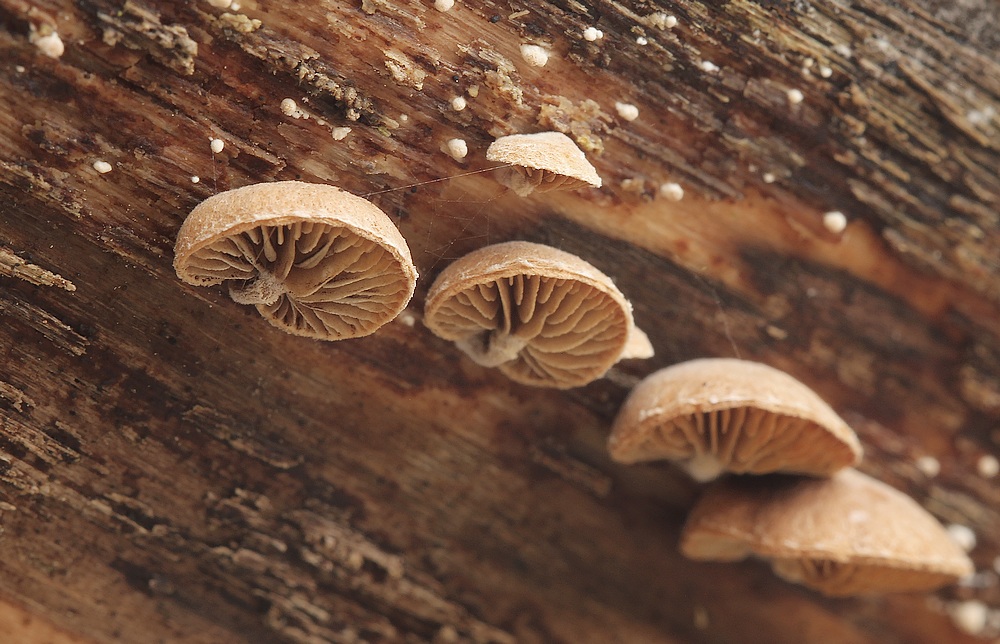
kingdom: Fungi
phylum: Basidiomycota
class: Agaricomycetes
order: Agaricales
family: Strophariaceae
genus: Deconica
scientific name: Deconica horizontalis
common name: ved-stråhat
